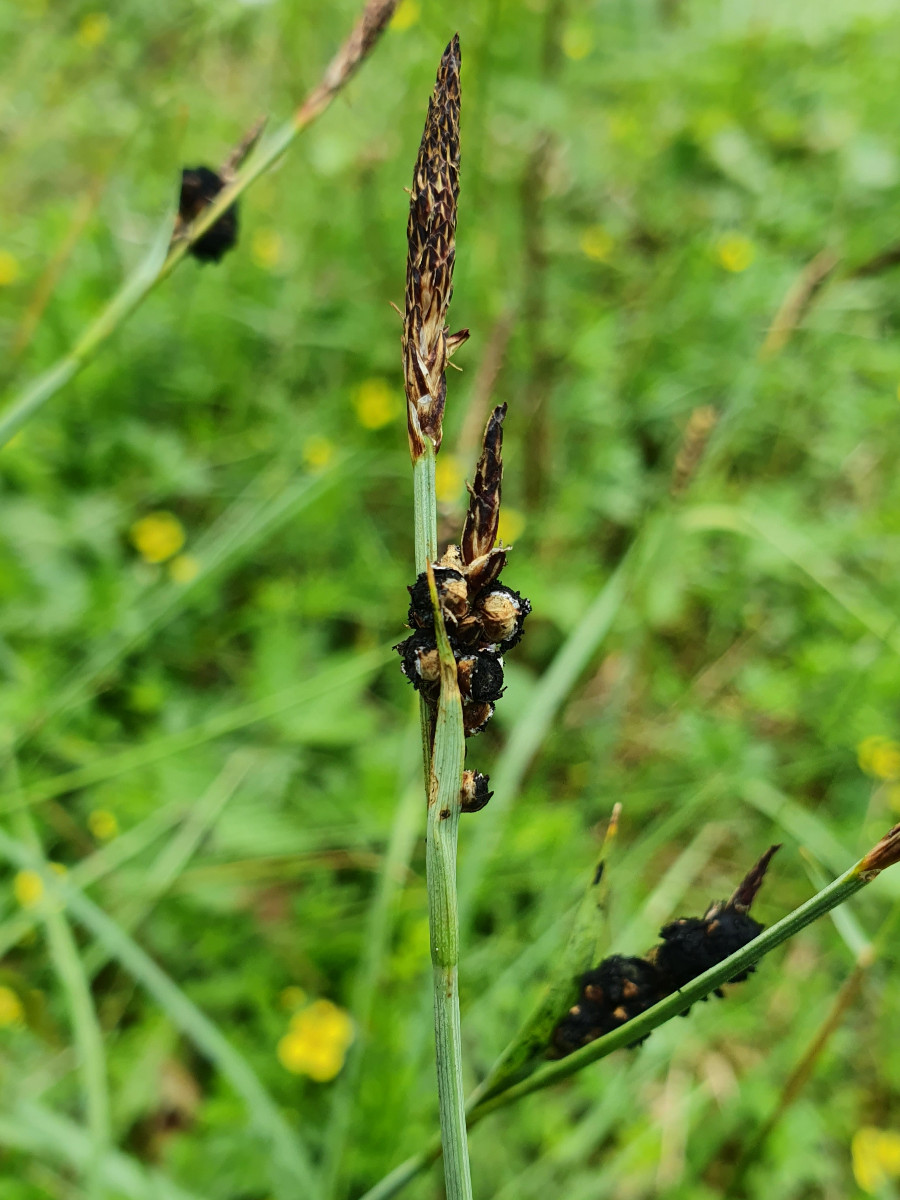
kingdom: Fungi
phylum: Basidiomycota
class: Ustilaginomycetes
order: Ustilaginales
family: Anthracoideaceae
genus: Anthracoidea
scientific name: Anthracoidea paniceae
